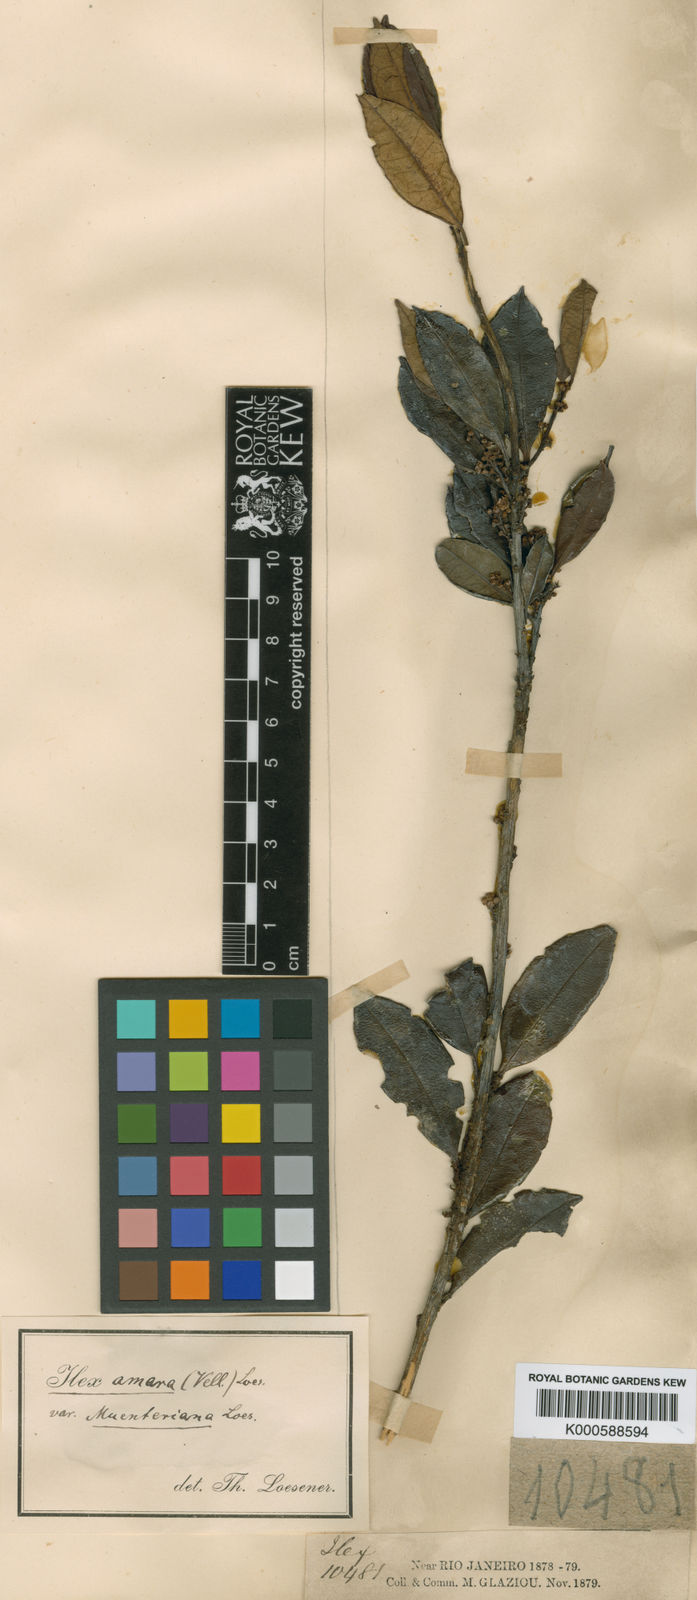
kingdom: Plantae
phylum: Tracheophyta
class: Magnoliopsida
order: Aquifoliales
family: Aquifoliaceae
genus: Ilex
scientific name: Ilex
